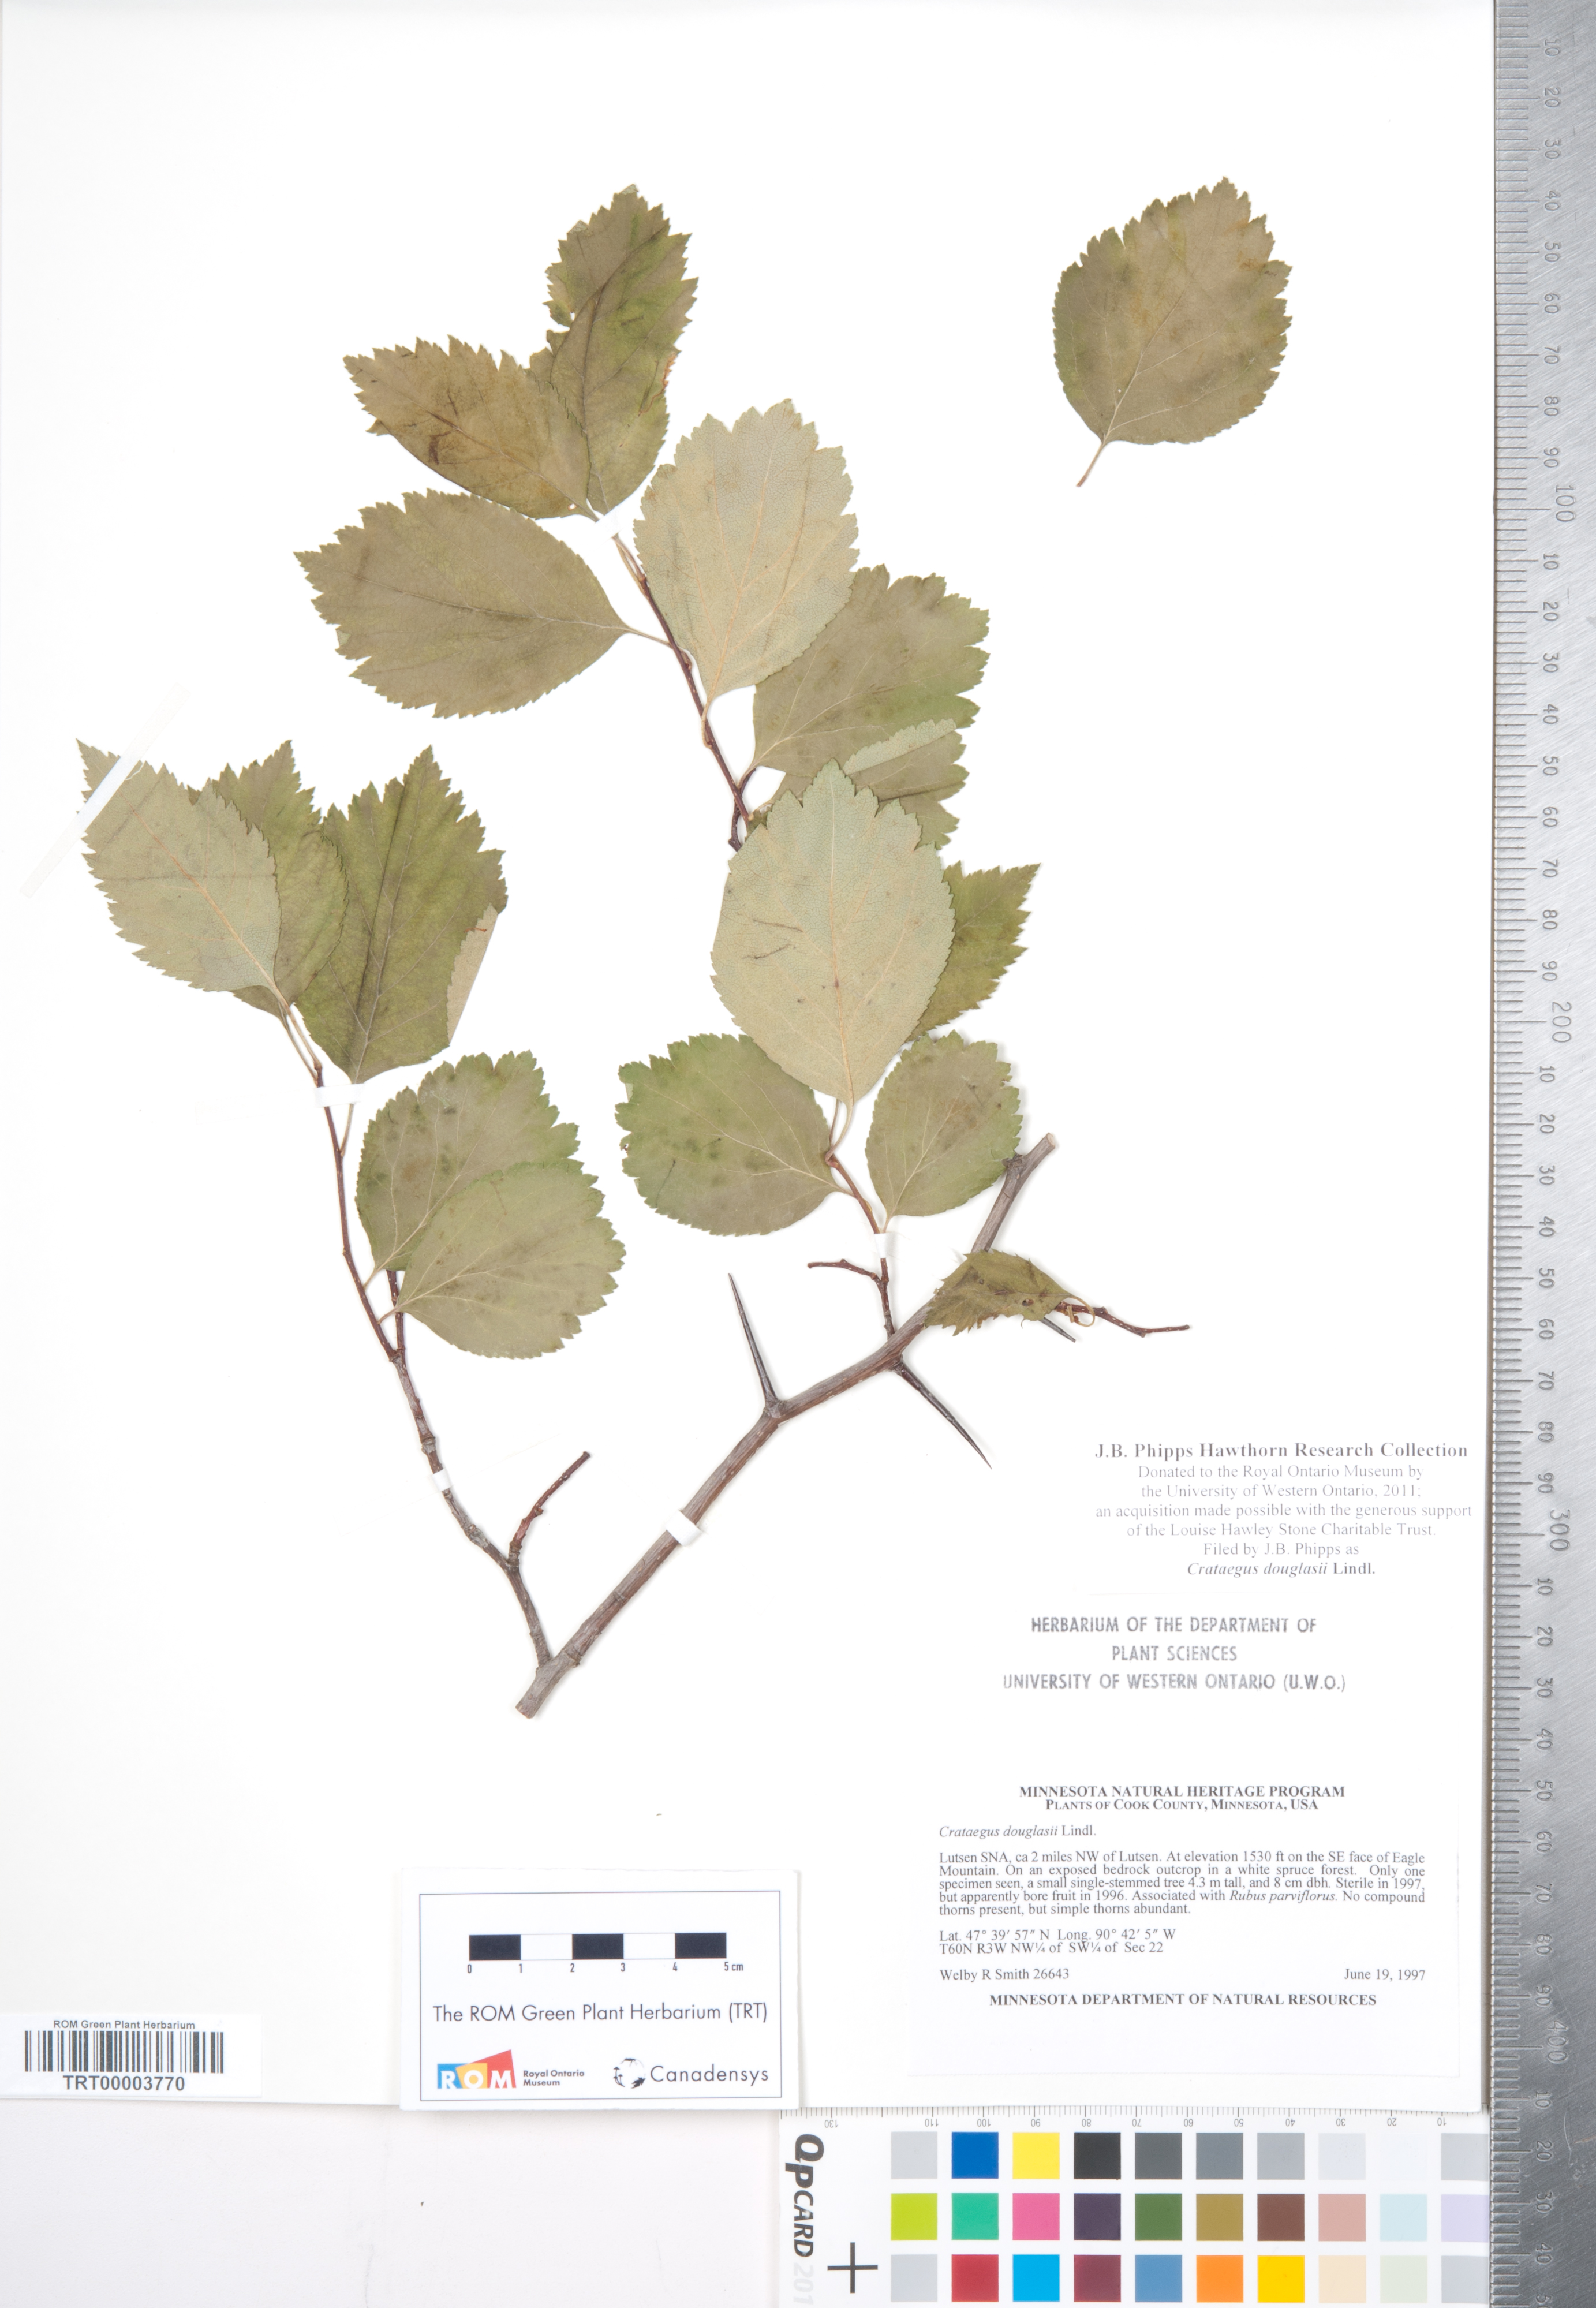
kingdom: Plantae
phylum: Tracheophyta
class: Magnoliopsida
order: Rosales
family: Rosaceae
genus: Crataegus
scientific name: Crataegus douglasii
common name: Black hawthorn
